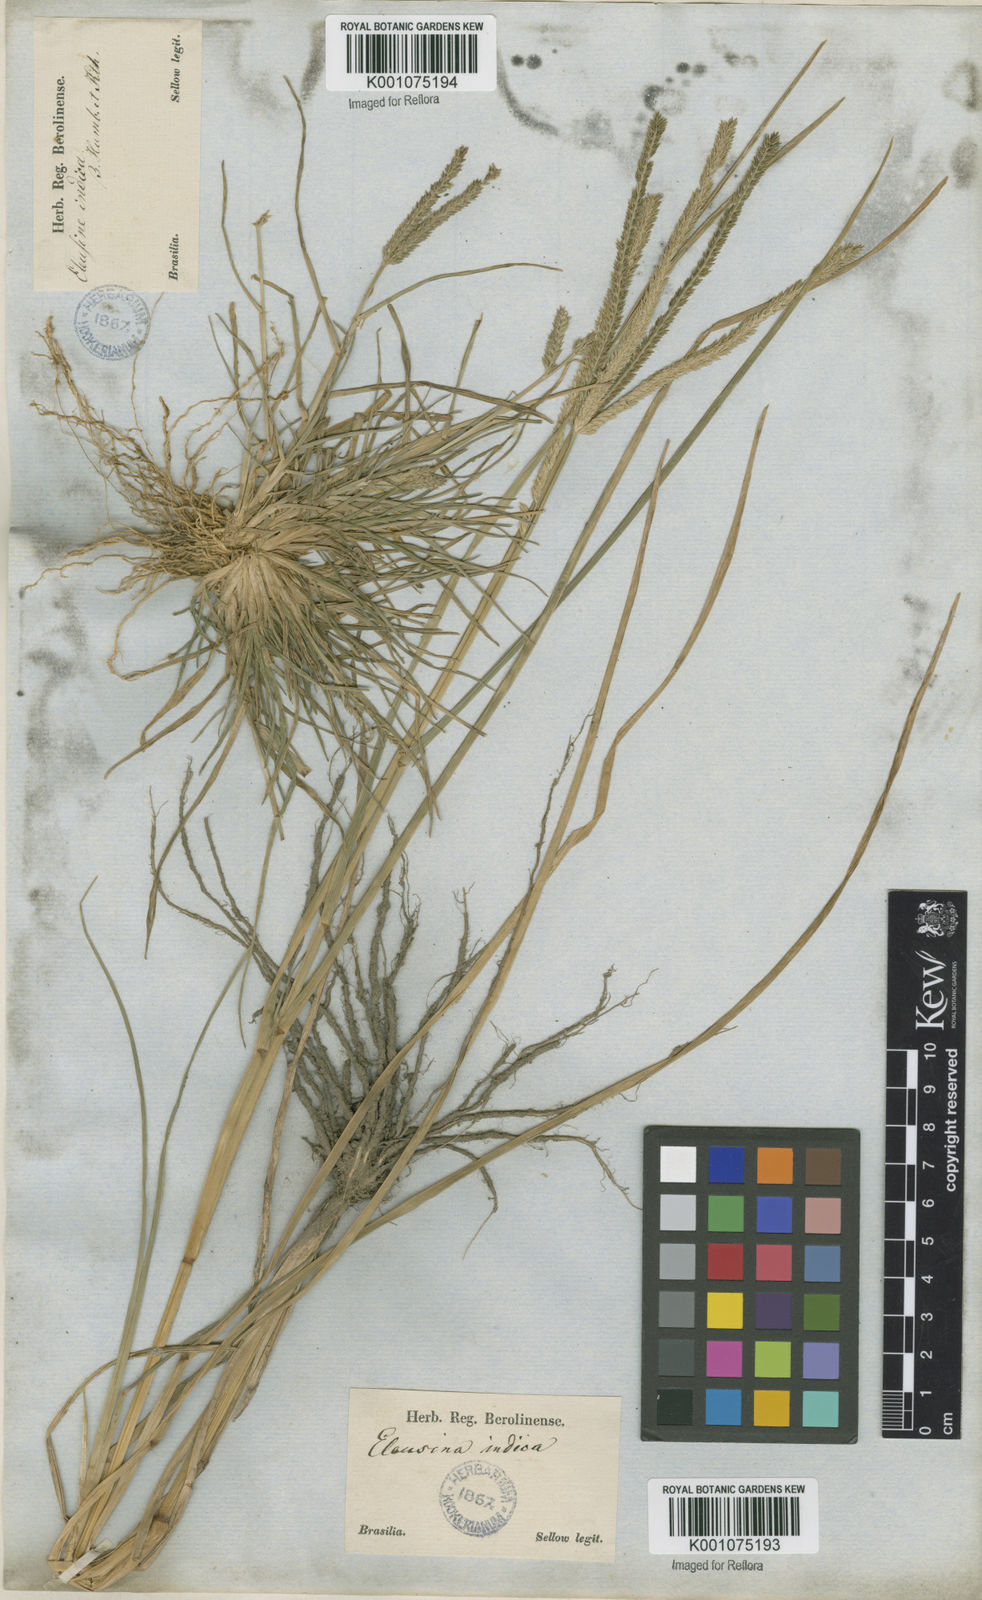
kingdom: Plantae
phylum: Tracheophyta
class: Liliopsida
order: Poales
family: Poaceae
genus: Eleusine
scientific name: Eleusine indica
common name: Yard-grass
